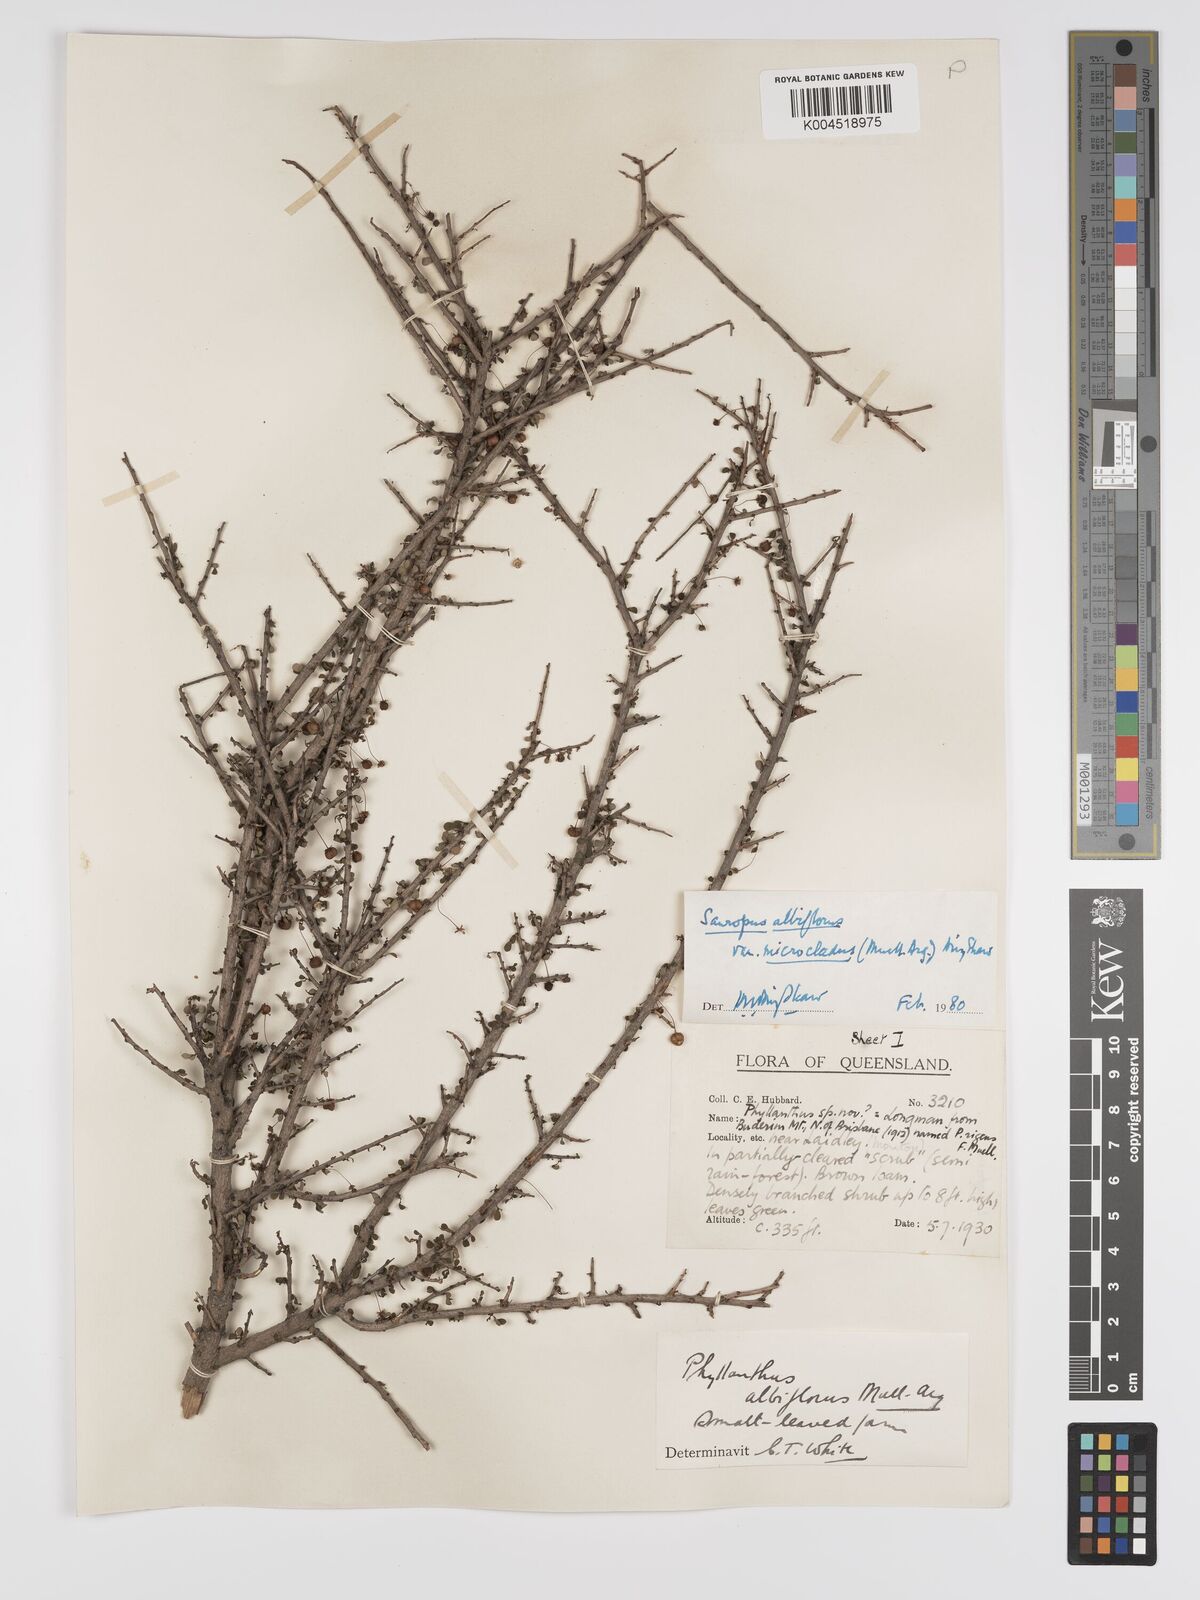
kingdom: Plantae
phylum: Tracheophyta
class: Magnoliopsida
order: Malpighiales
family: Phyllanthaceae
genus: Phyllanthus
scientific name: Phyllanthus microcladus
